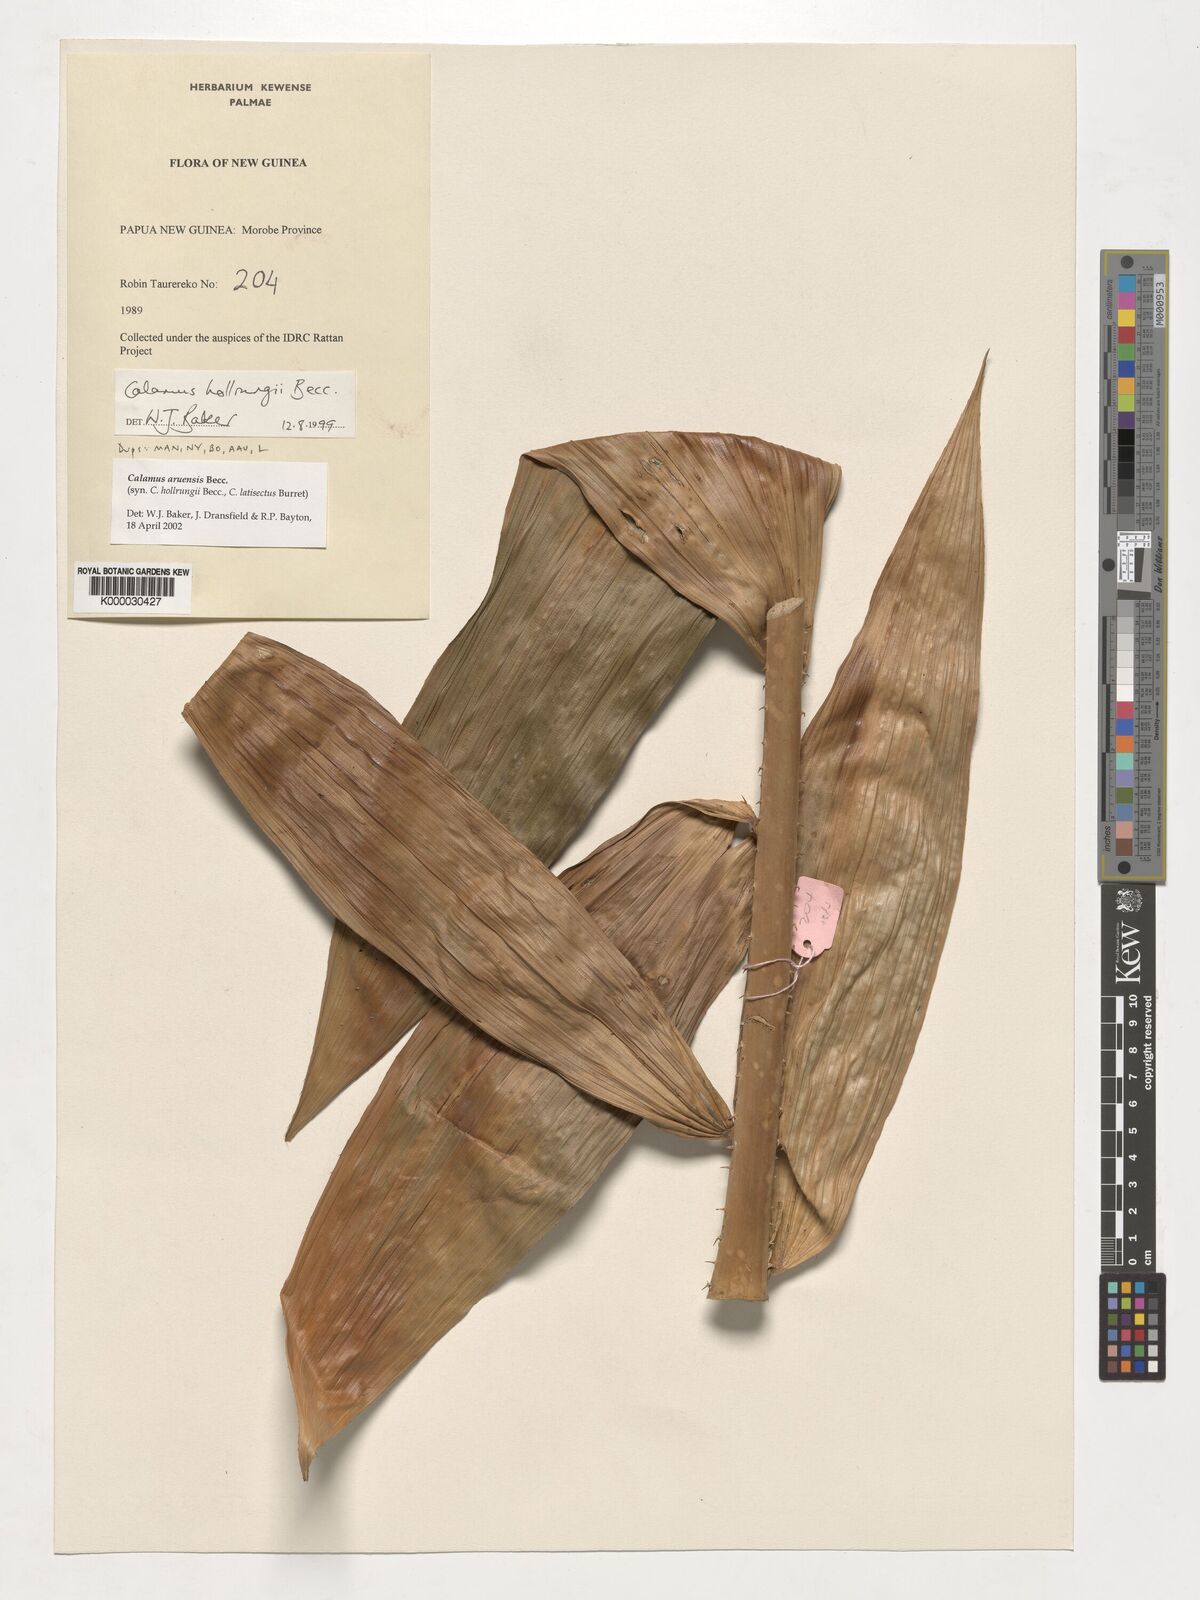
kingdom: Plantae
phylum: Tracheophyta
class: Liliopsida
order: Arecales
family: Arecaceae
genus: Calamus
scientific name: Calamus aruensis
